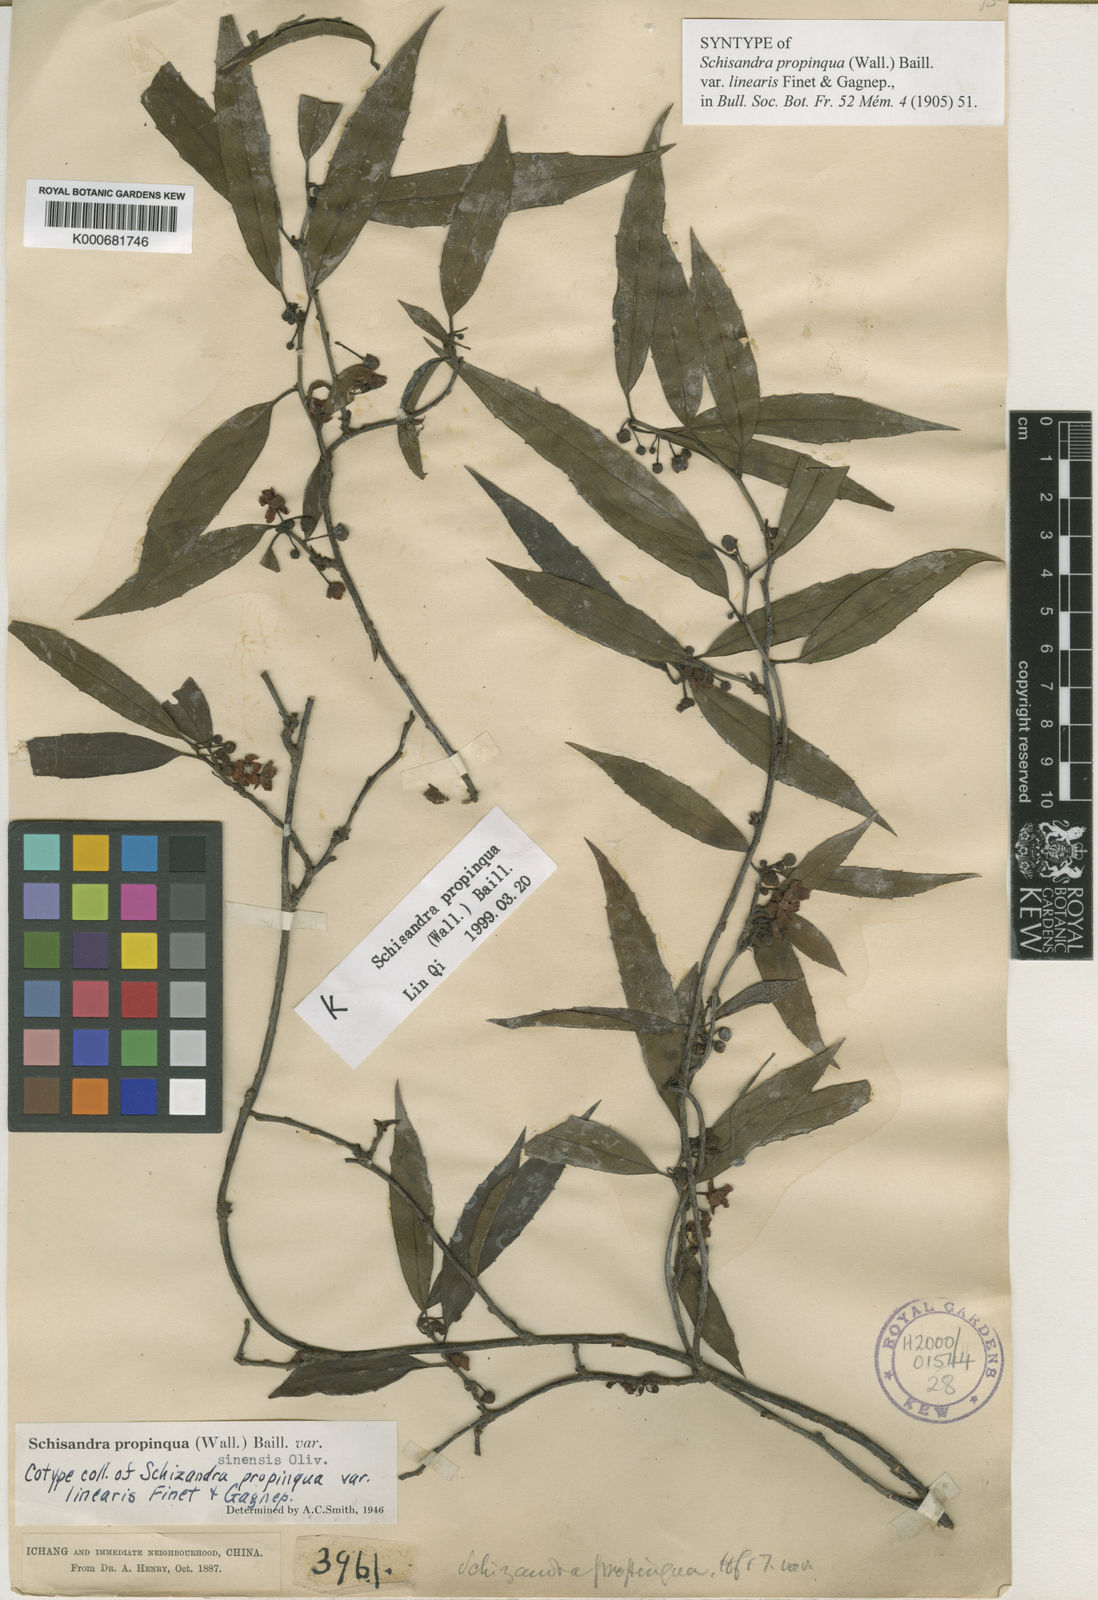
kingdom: Plantae
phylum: Tracheophyta
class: Magnoliopsida
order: Austrobaileyales
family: Schisandraceae
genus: Schisandra
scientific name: Schisandra propinqua
